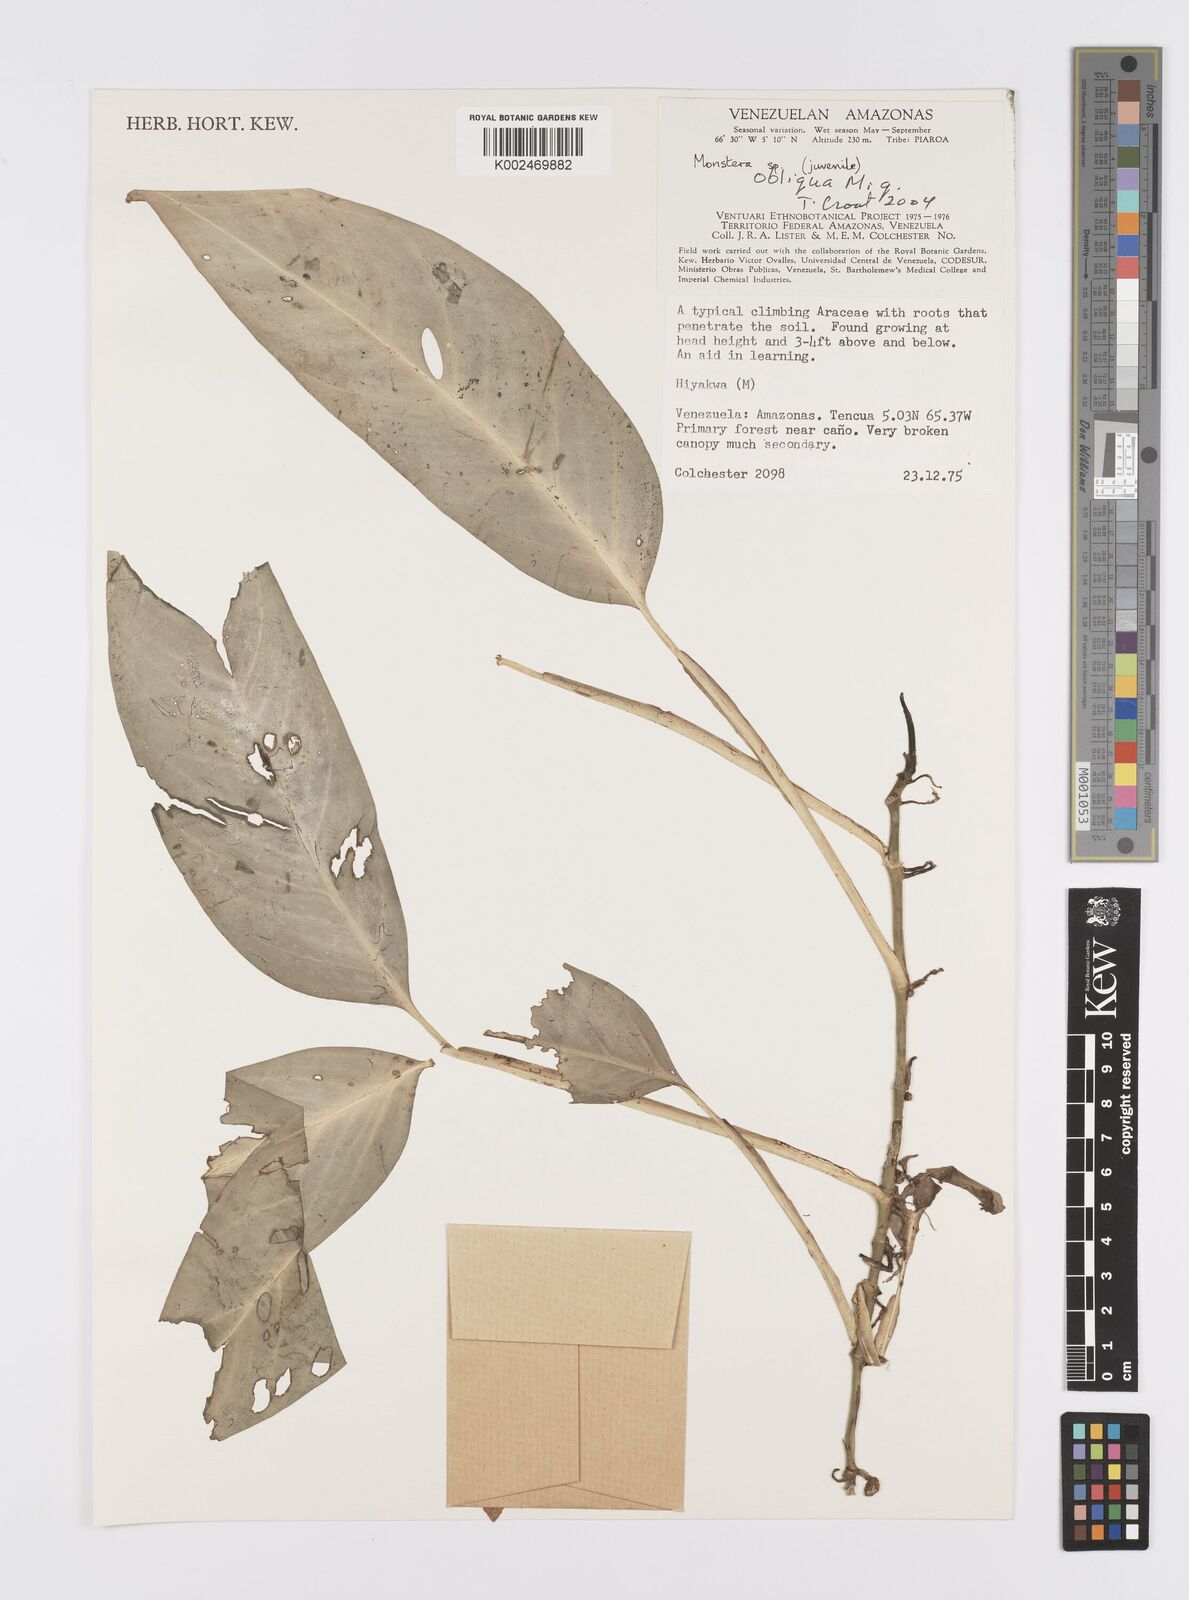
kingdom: Plantae
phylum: Tracheophyta
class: Liliopsida
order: Alismatales
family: Araceae
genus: Monstera
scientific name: Monstera obliqua
